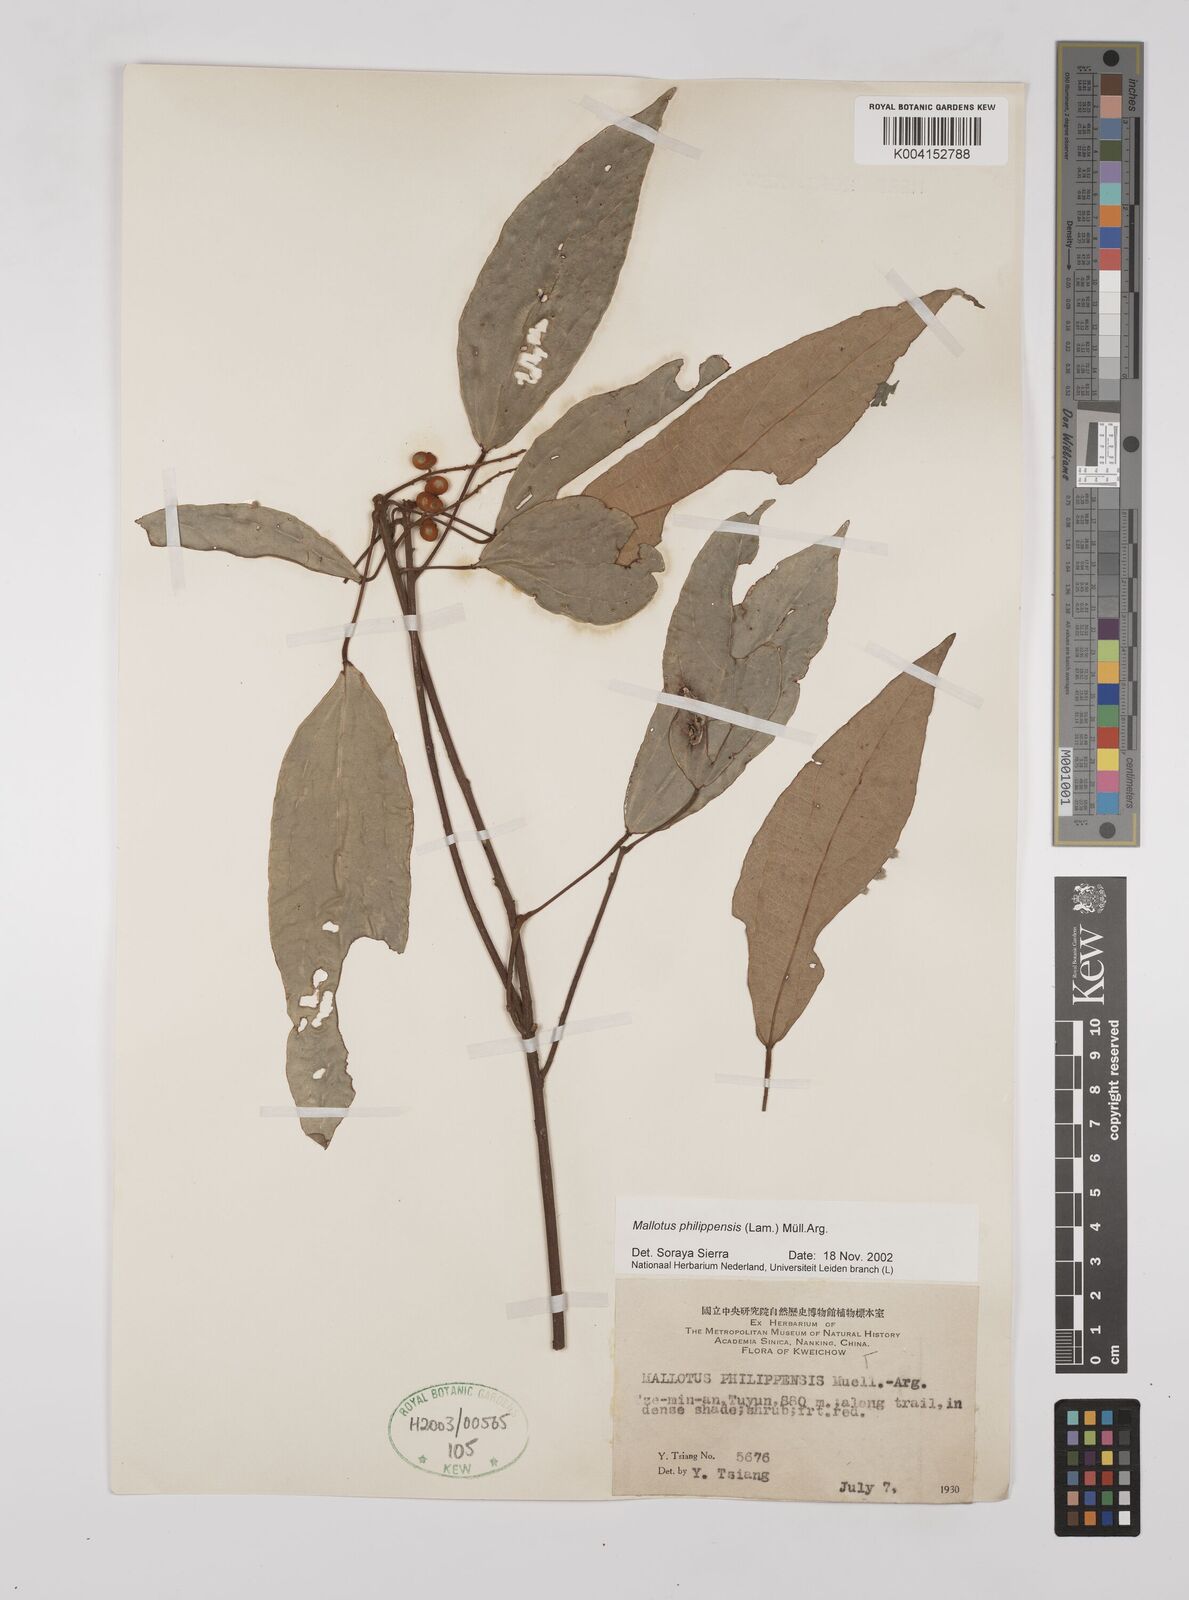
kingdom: Plantae
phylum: Tracheophyta
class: Magnoliopsida
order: Malpighiales
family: Euphorbiaceae
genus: Mallotus
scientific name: Mallotus philippensis
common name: Kamala tree
